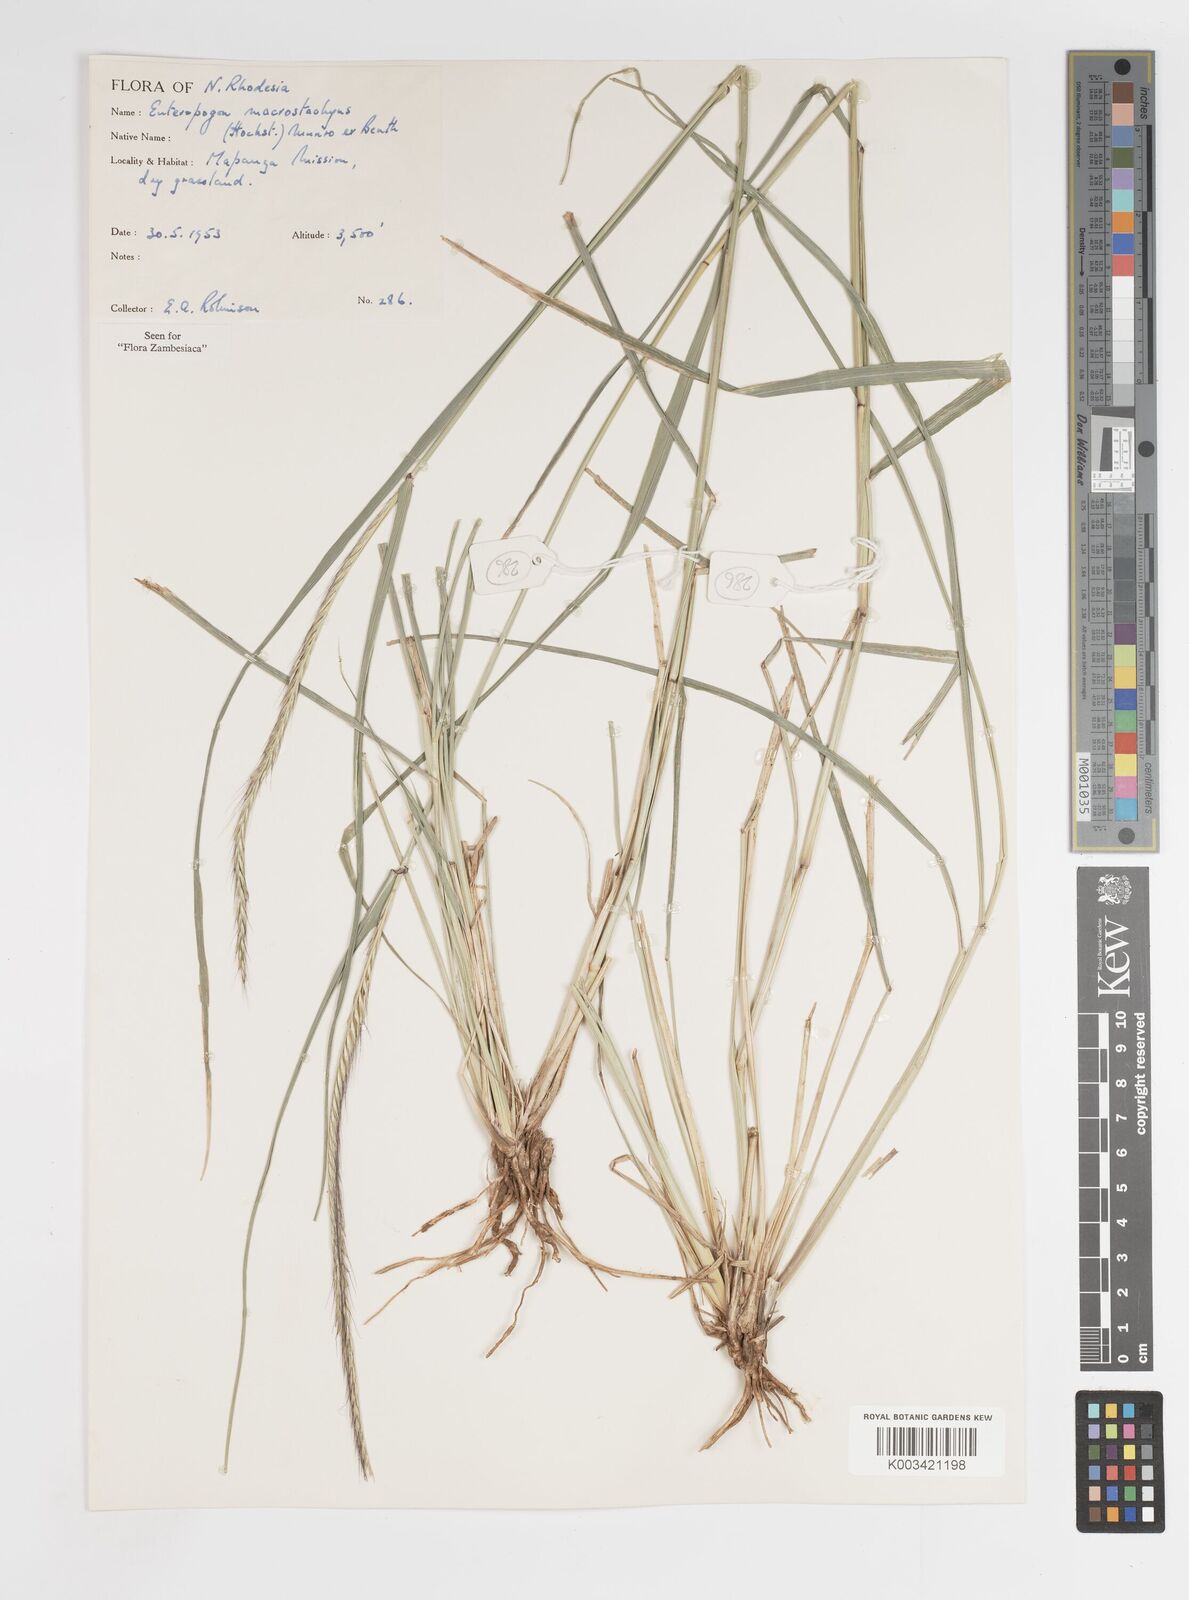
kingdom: Plantae
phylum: Tracheophyta
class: Liliopsida
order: Poales
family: Poaceae
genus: Enteropogon
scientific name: Enteropogon macrostachyus
